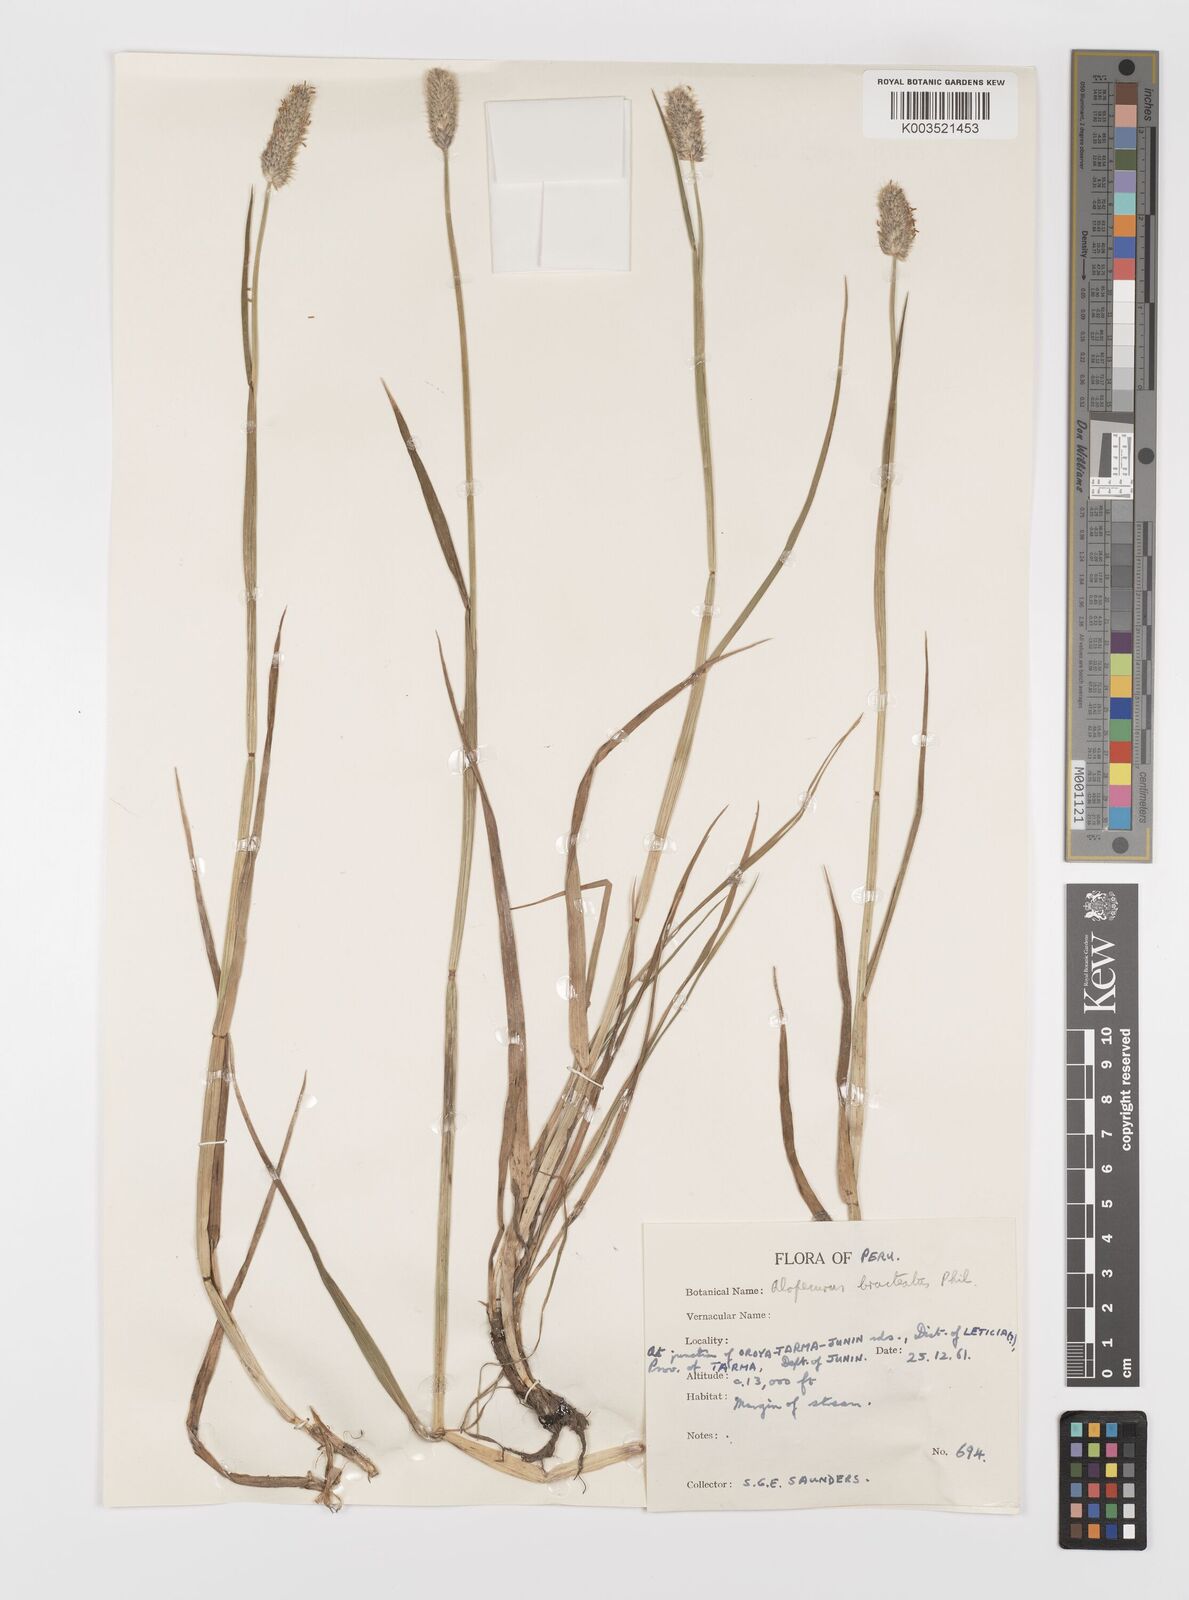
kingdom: Plantae
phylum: Tracheophyta
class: Liliopsida
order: Poales
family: Poaceae
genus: Alopecurus
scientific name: Alopecurus magellanicus
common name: Alpine foxtail
